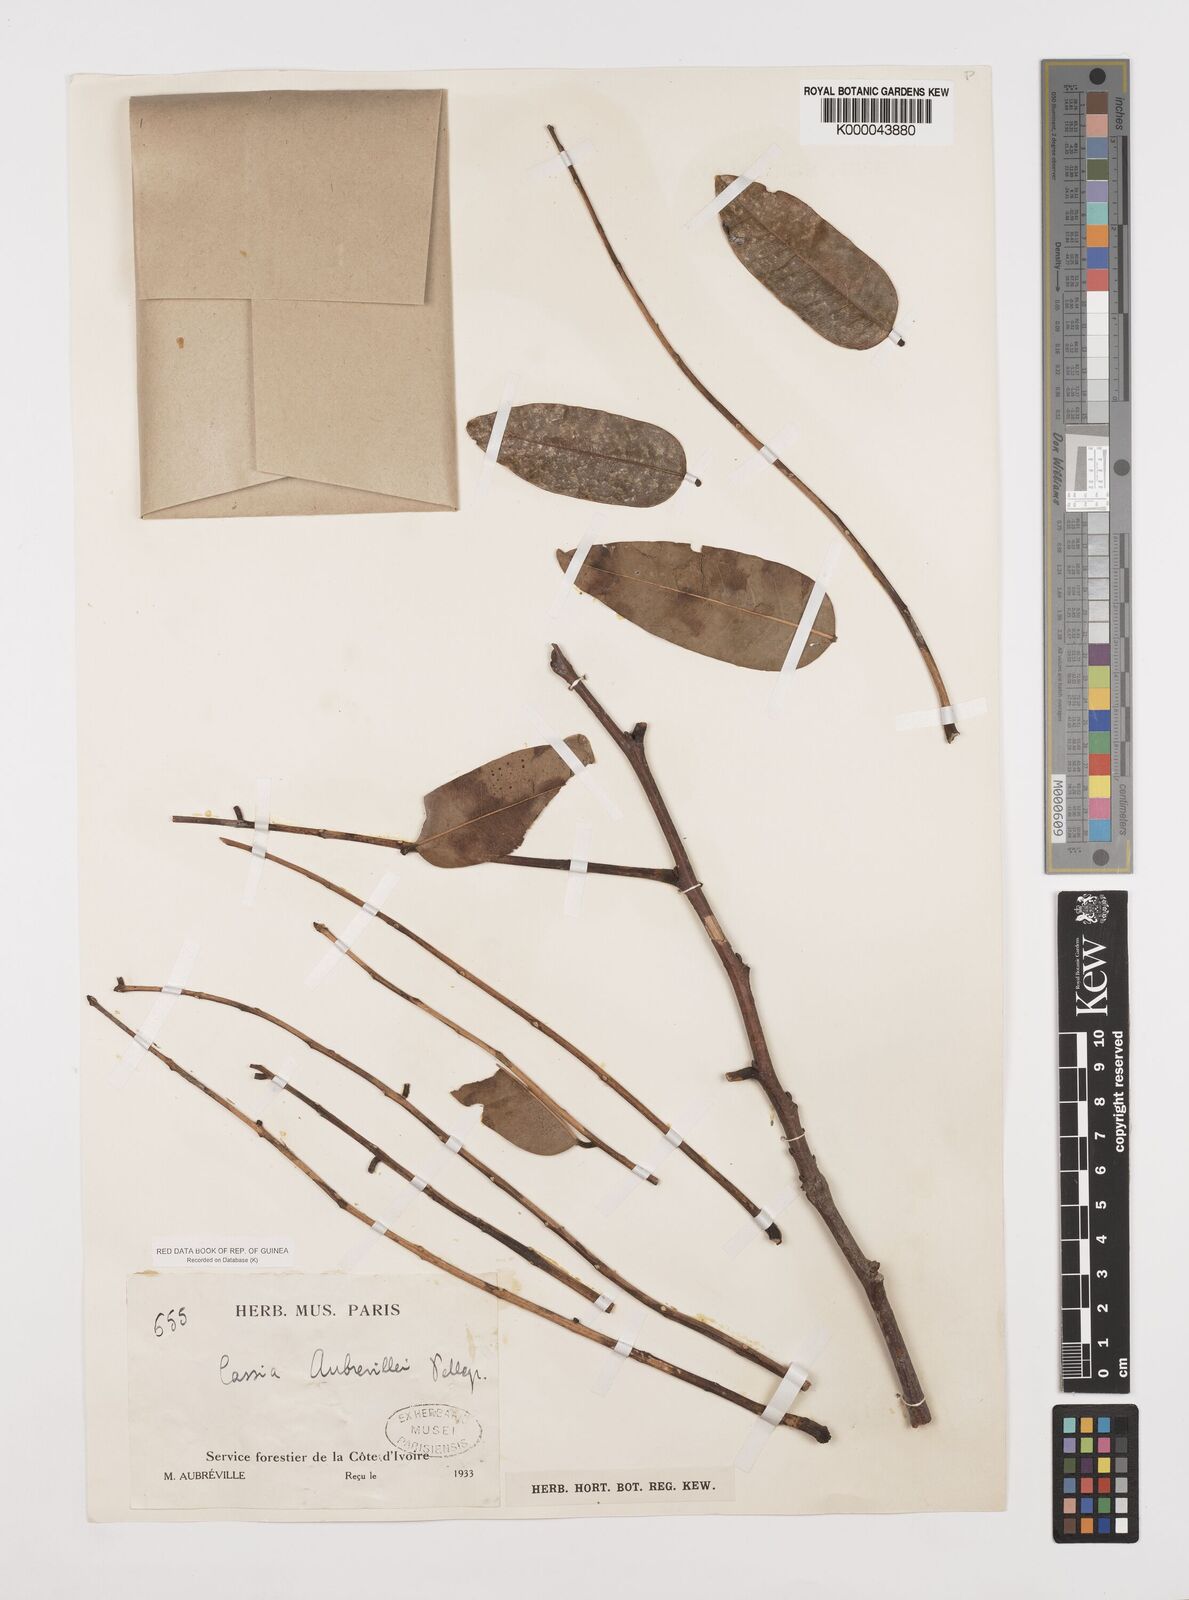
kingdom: Plantae
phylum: Tracheophyta
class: Magnoliopsida
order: Fabales
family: Fabaceae
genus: Cassia
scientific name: Cassia aubrevillei
